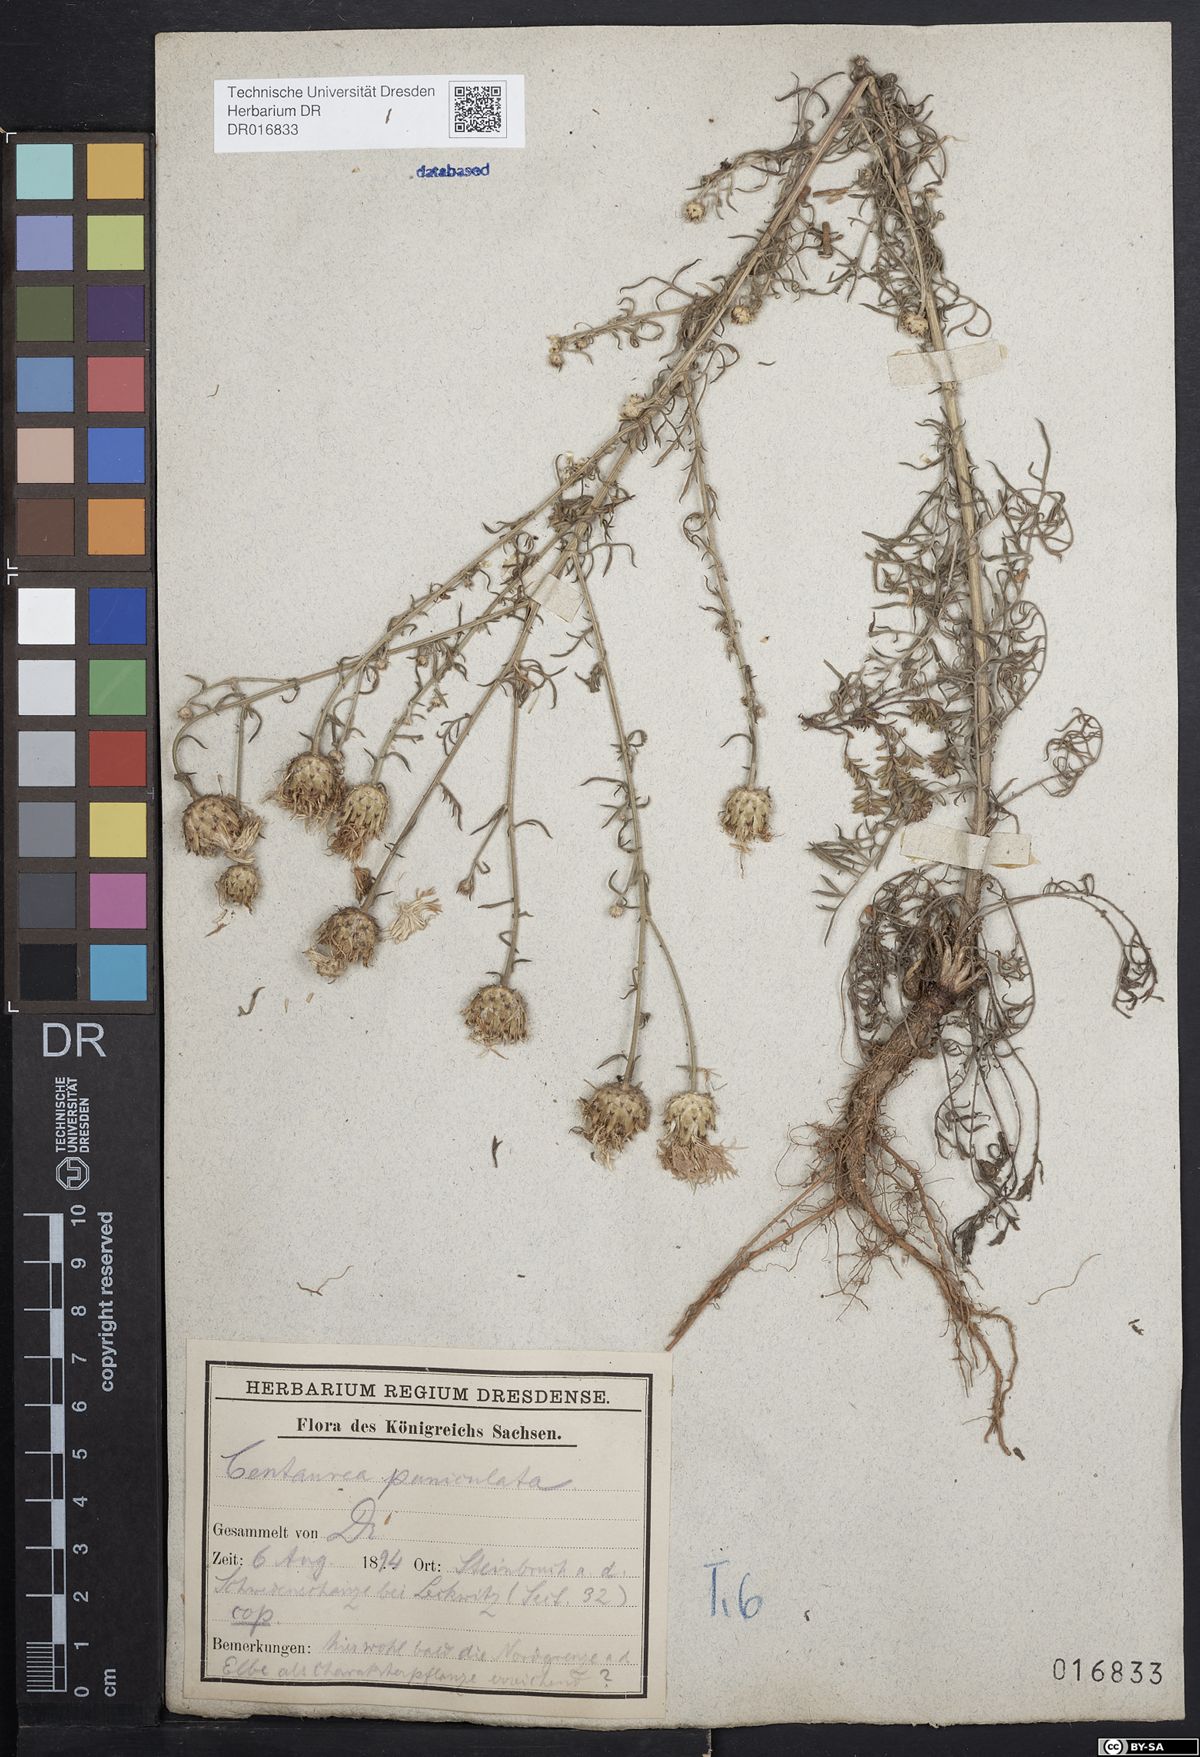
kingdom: Plantae
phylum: Tracheophyta
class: Magnoliopsida
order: Asterales
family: Asteraceae
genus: Centaurea
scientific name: Centaurea stoebe
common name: Spotted knapweed
